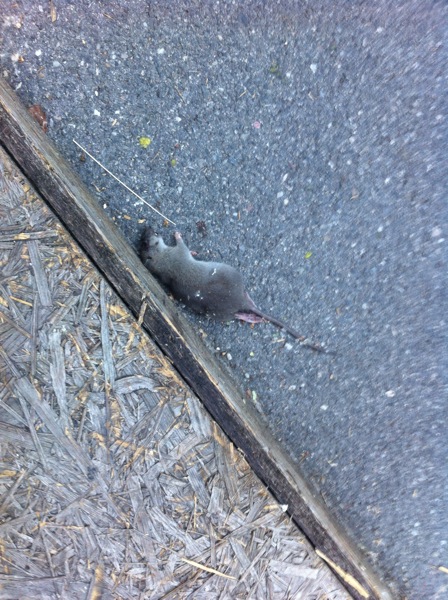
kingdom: Animalia
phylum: Chordata
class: Mammalia
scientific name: Mammalia
